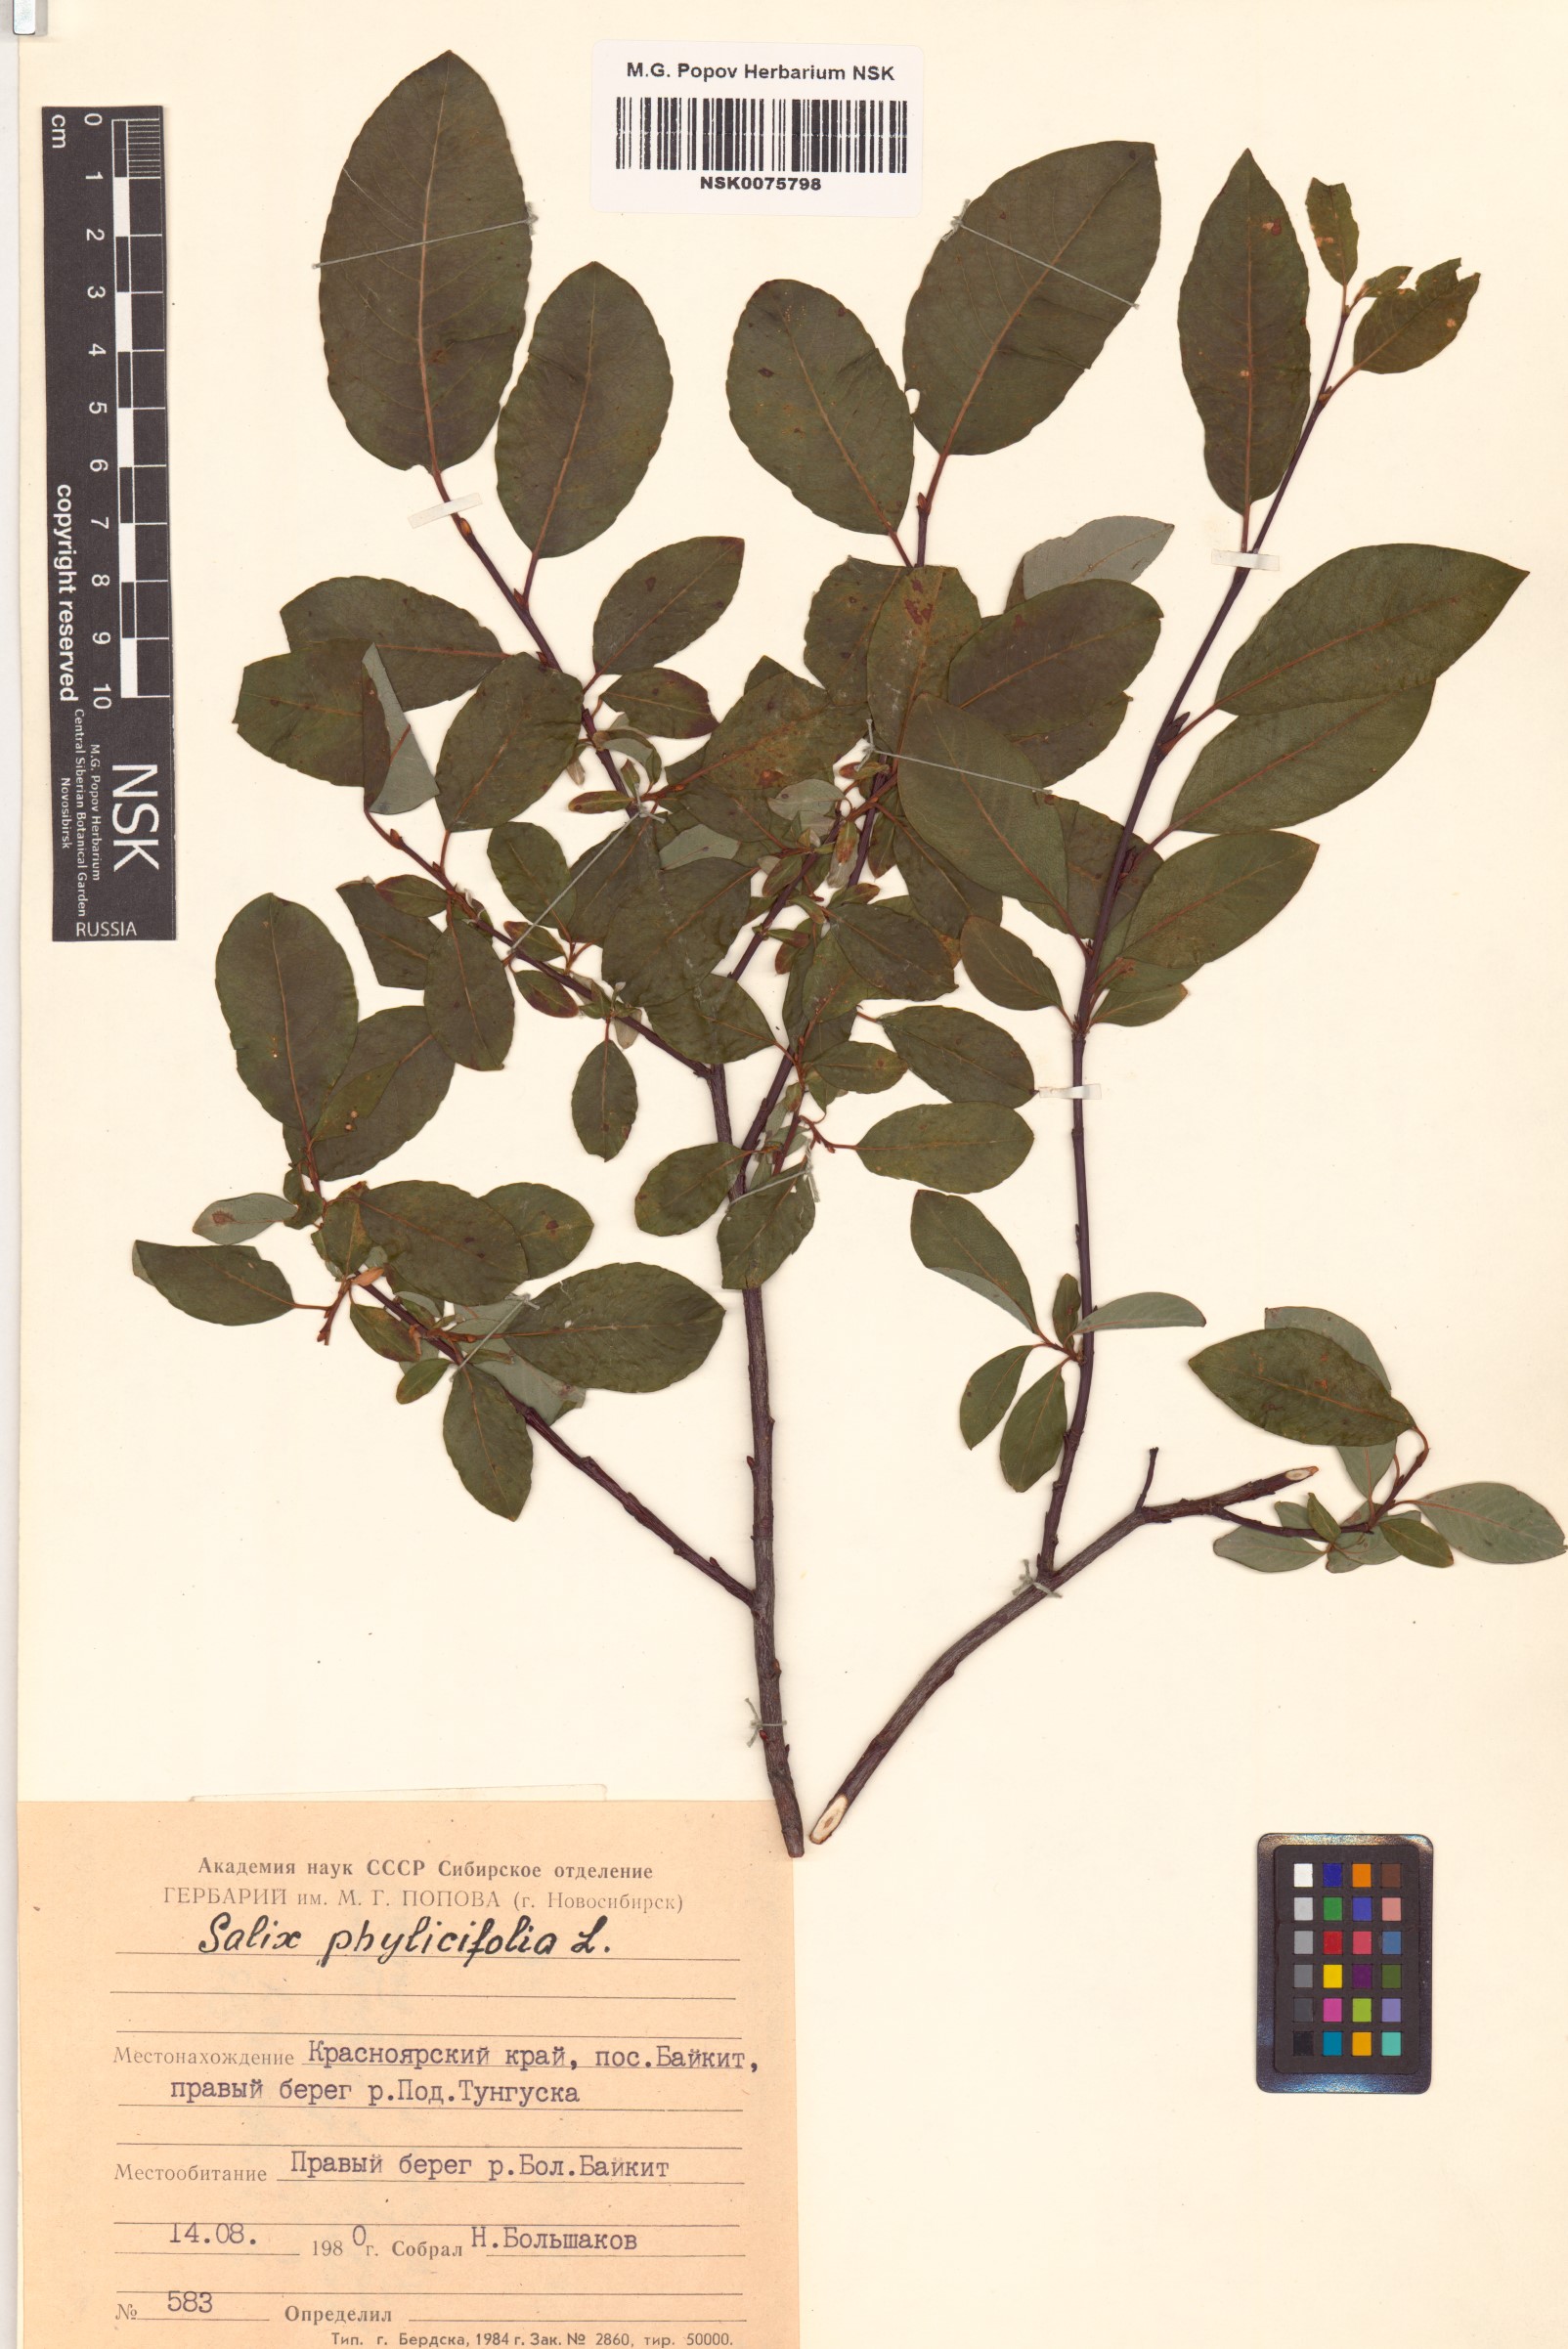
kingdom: Plantae
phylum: Tracheophyta
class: Magnoliopsida
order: Malpighiales
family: Salicaceae
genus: Salix
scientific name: Salix phylicifolia
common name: Tea-leaved willow
